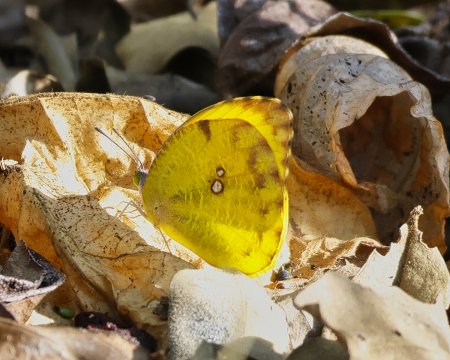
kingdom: Animalia
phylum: Arthropoda
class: Insecta
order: Lepidoptera
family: Pieridae
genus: Prestonia
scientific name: Prestonia clarki
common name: West-Mexican Sulphur
